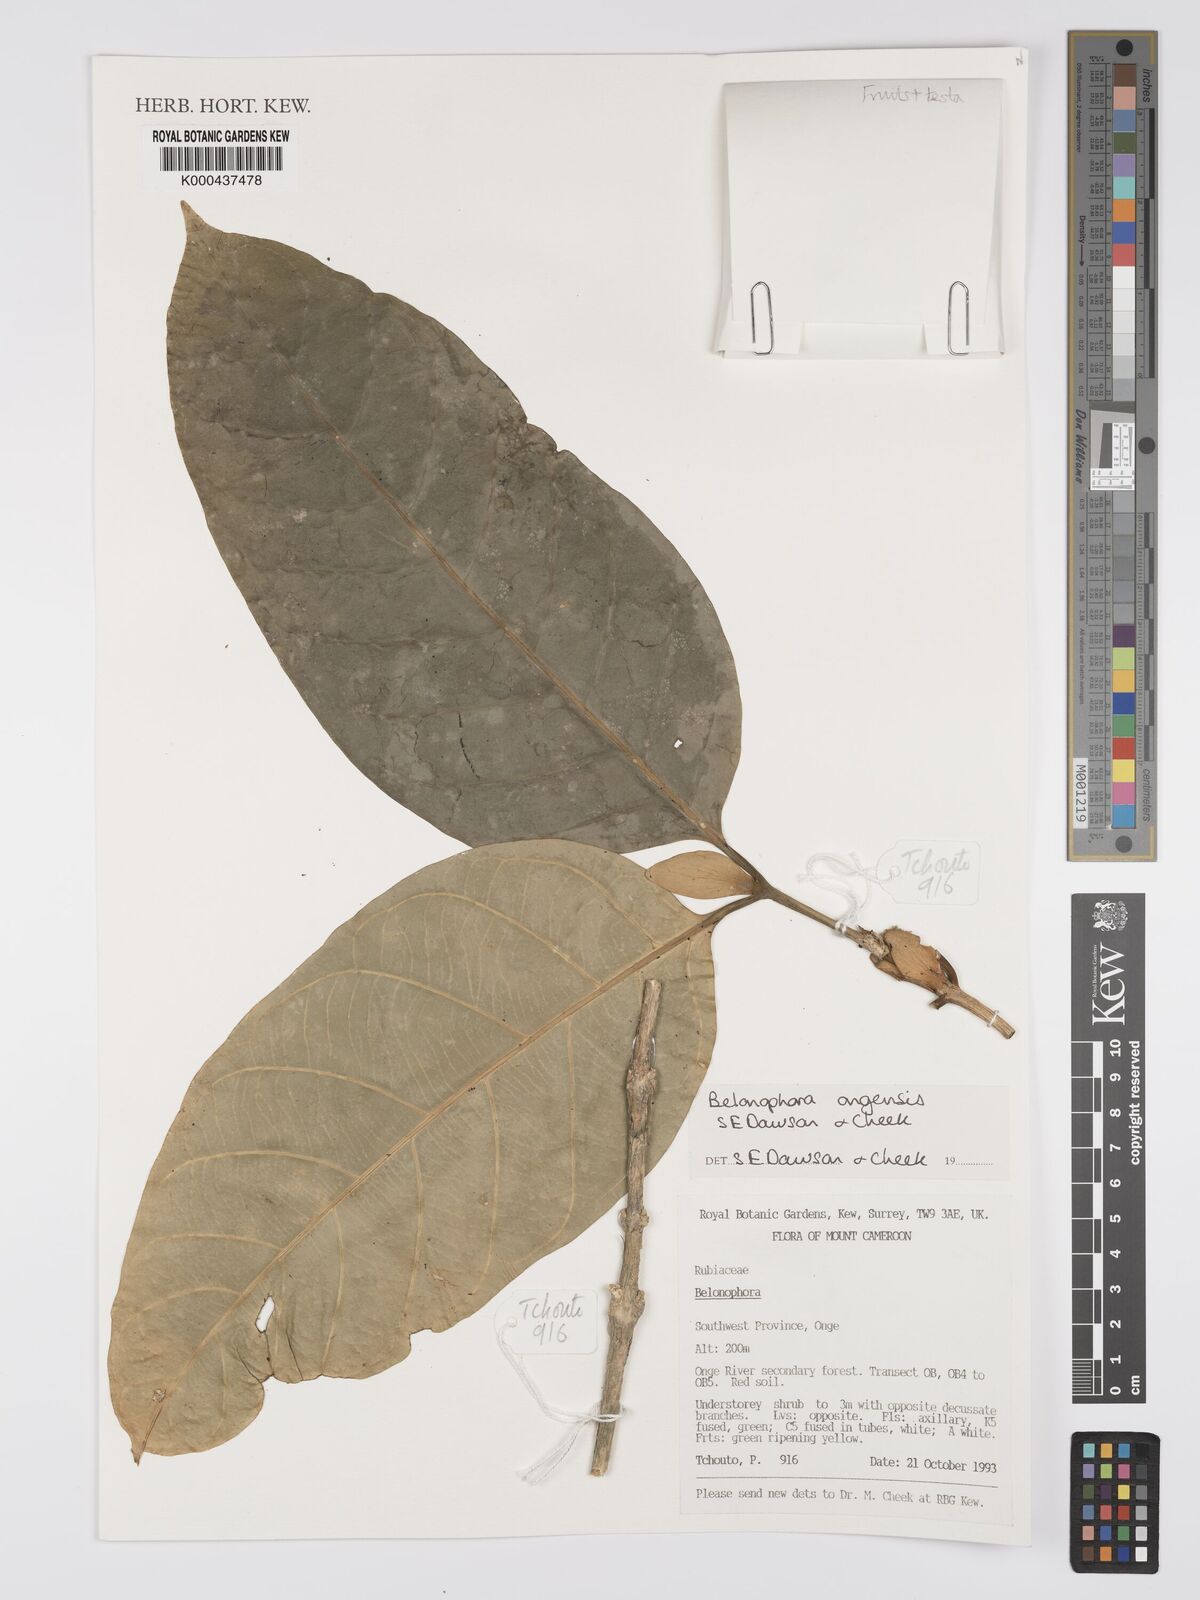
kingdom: Plantae
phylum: Tracheophyta
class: Magnoliopsida
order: Gentianales
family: Rubiaceae
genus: Belonophora
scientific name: Belonophora ongensis
